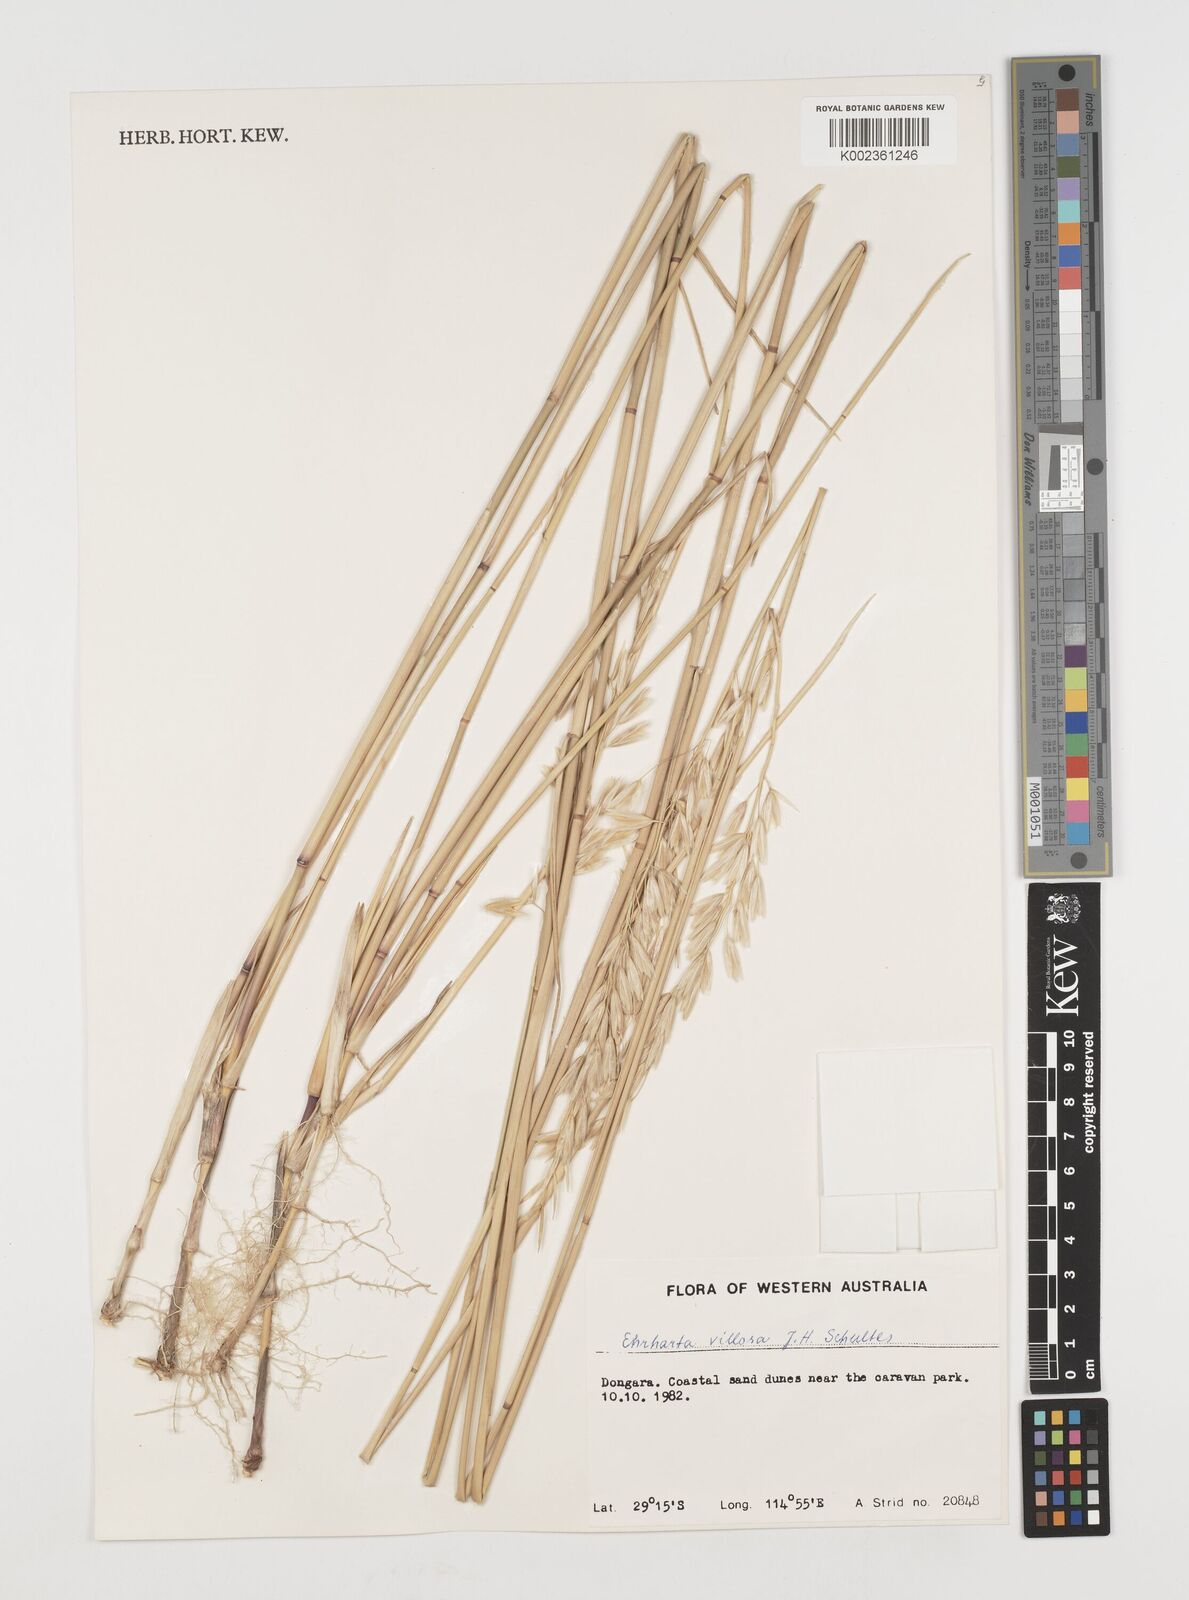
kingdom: Plantae
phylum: Tracheophyta
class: Liliopsida
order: Poales
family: Poaceae
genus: Ehrharta
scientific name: Ehrharta villosa
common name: Pyp grass
